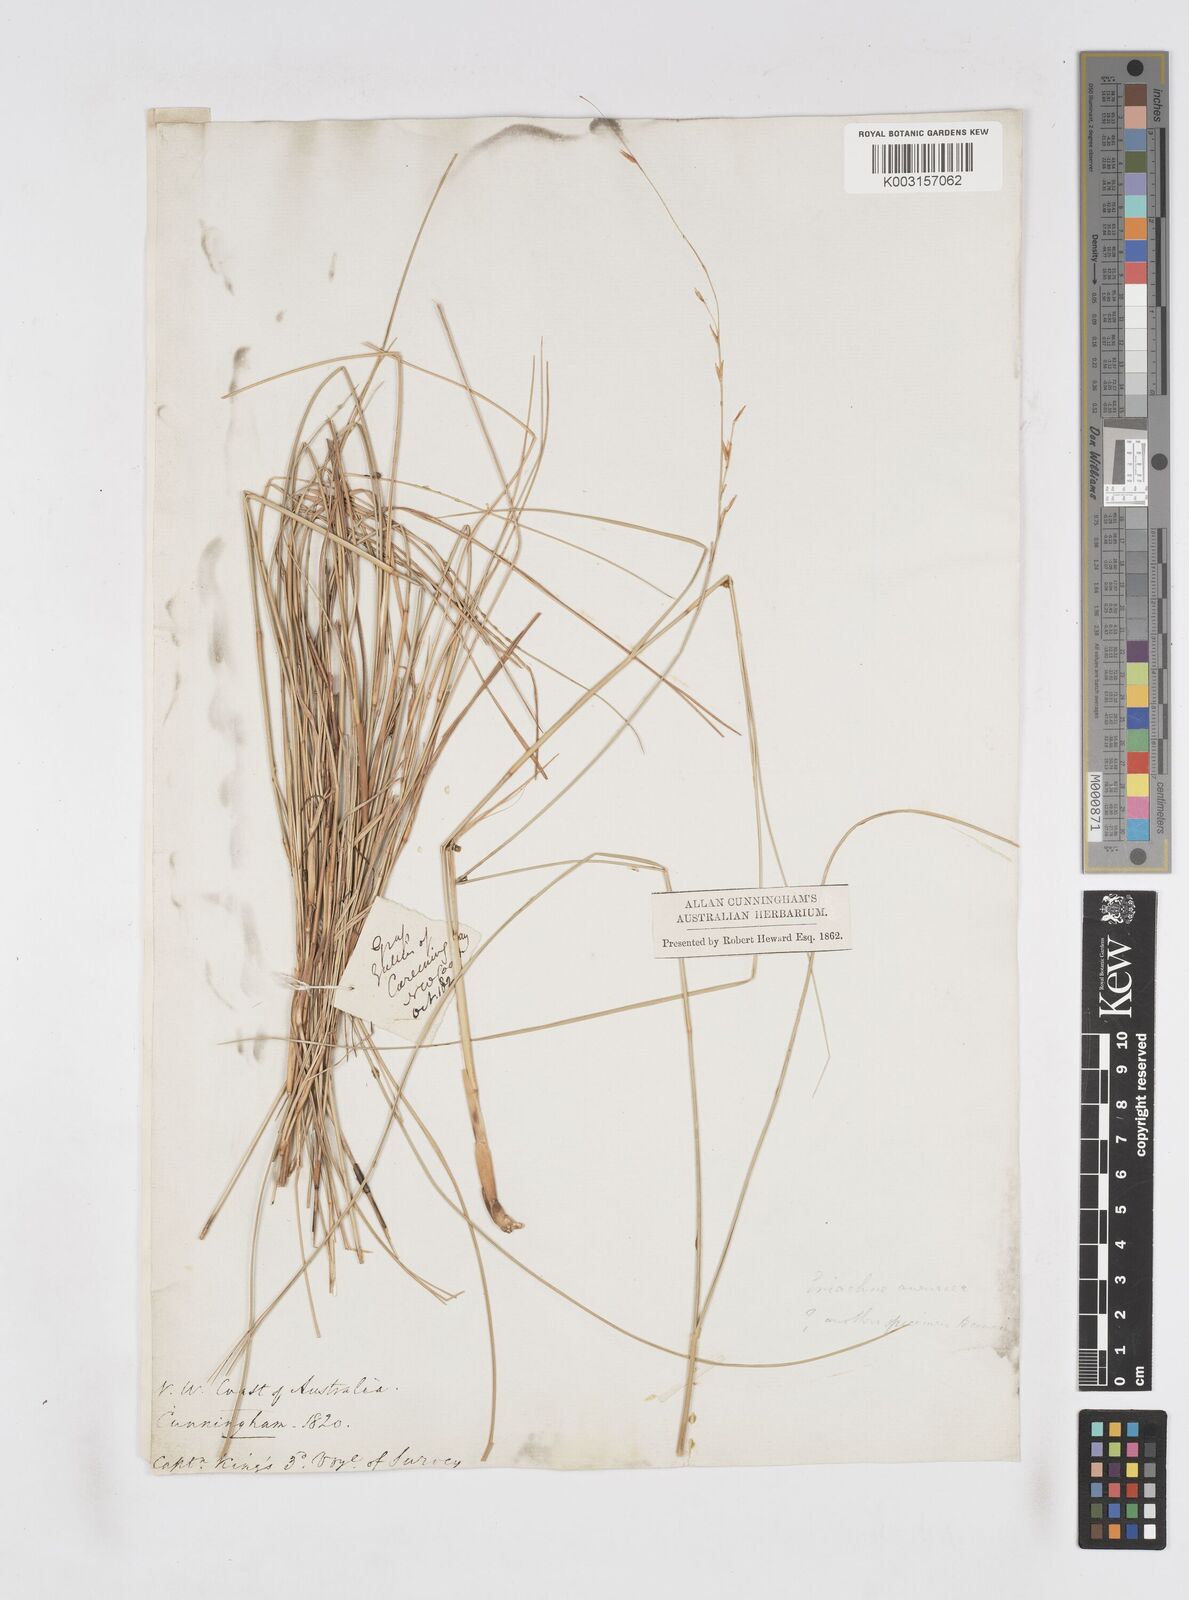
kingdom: Plantae
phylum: Tracheophyta
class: Liliopsida
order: Poales
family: Poaceae
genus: Eriachne
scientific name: Eriachne festucacea
